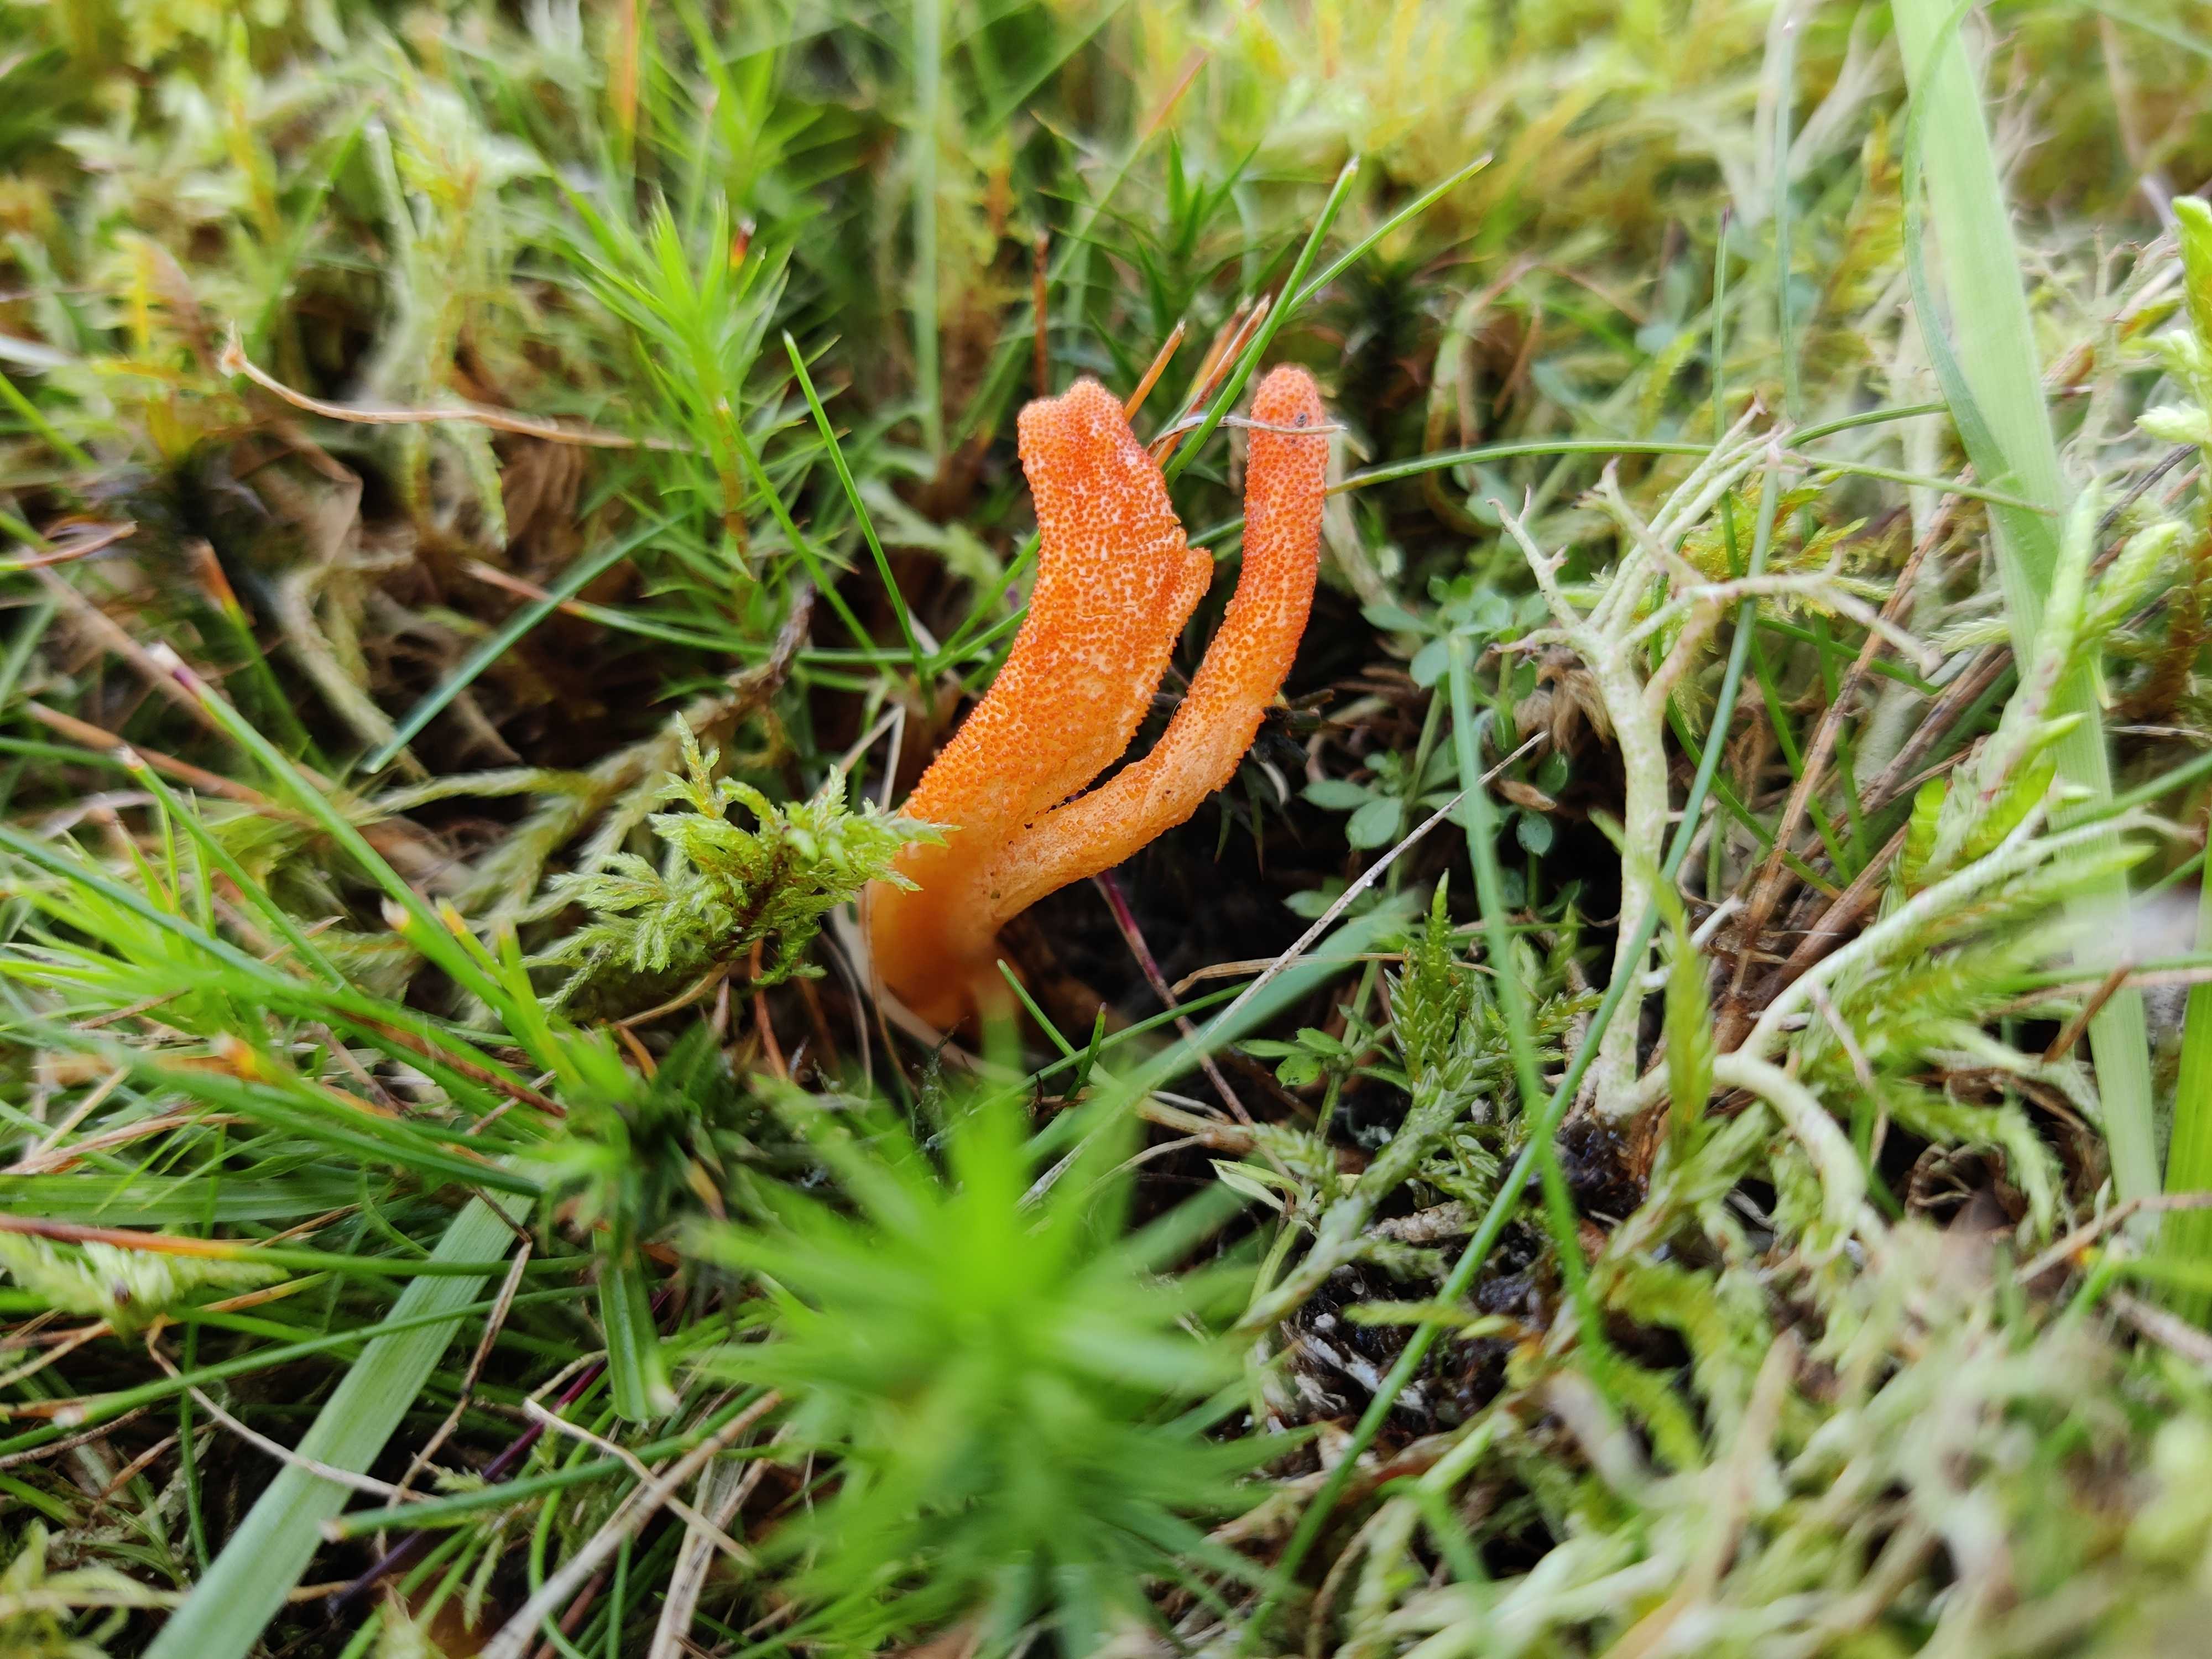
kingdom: Fungi
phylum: Ascomycota
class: Sordariomycetes
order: Hypocreales
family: Cordycipitaceae
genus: Cordyceps
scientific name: Cordyceps militaris
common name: puppe-snyltekølle
